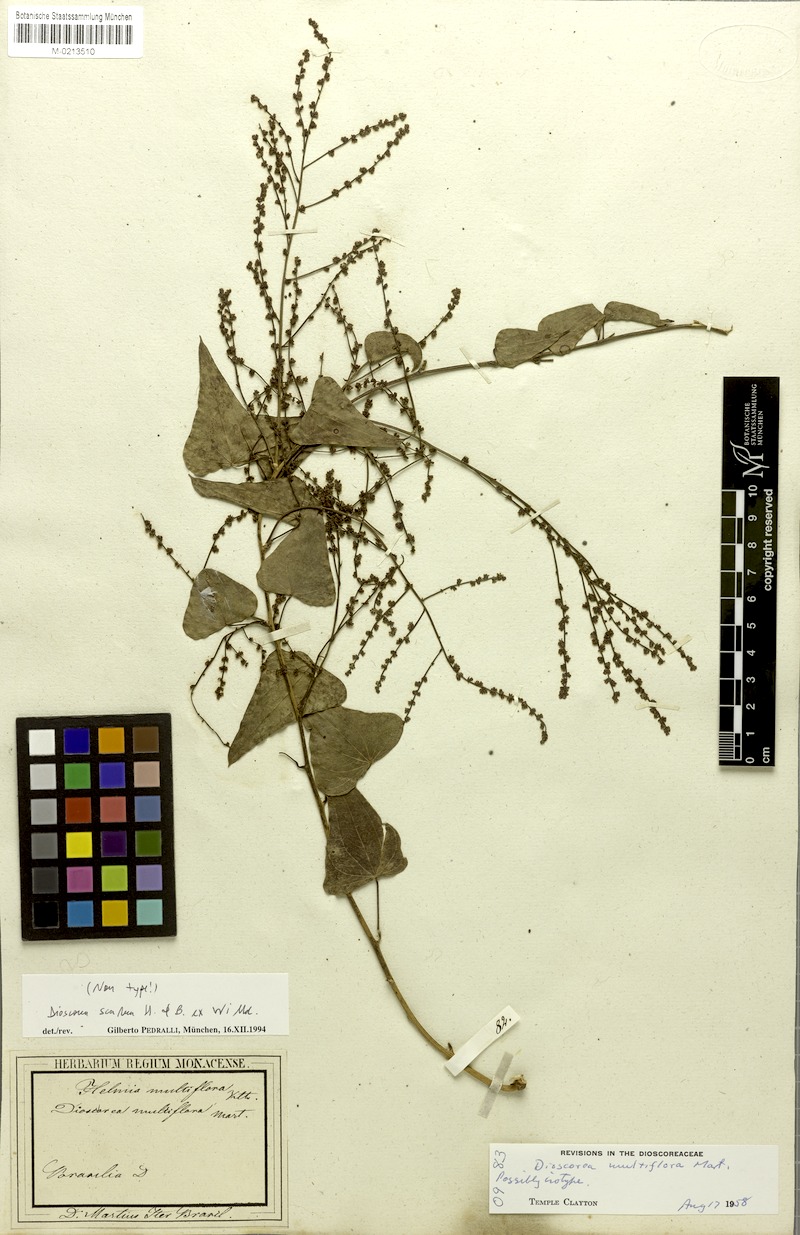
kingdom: Plantae
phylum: Tracheophyta
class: Liliopsida
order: Dioscoreales
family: Dioscoreaceae
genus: Dioscorea
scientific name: Dioscorea multiflora
